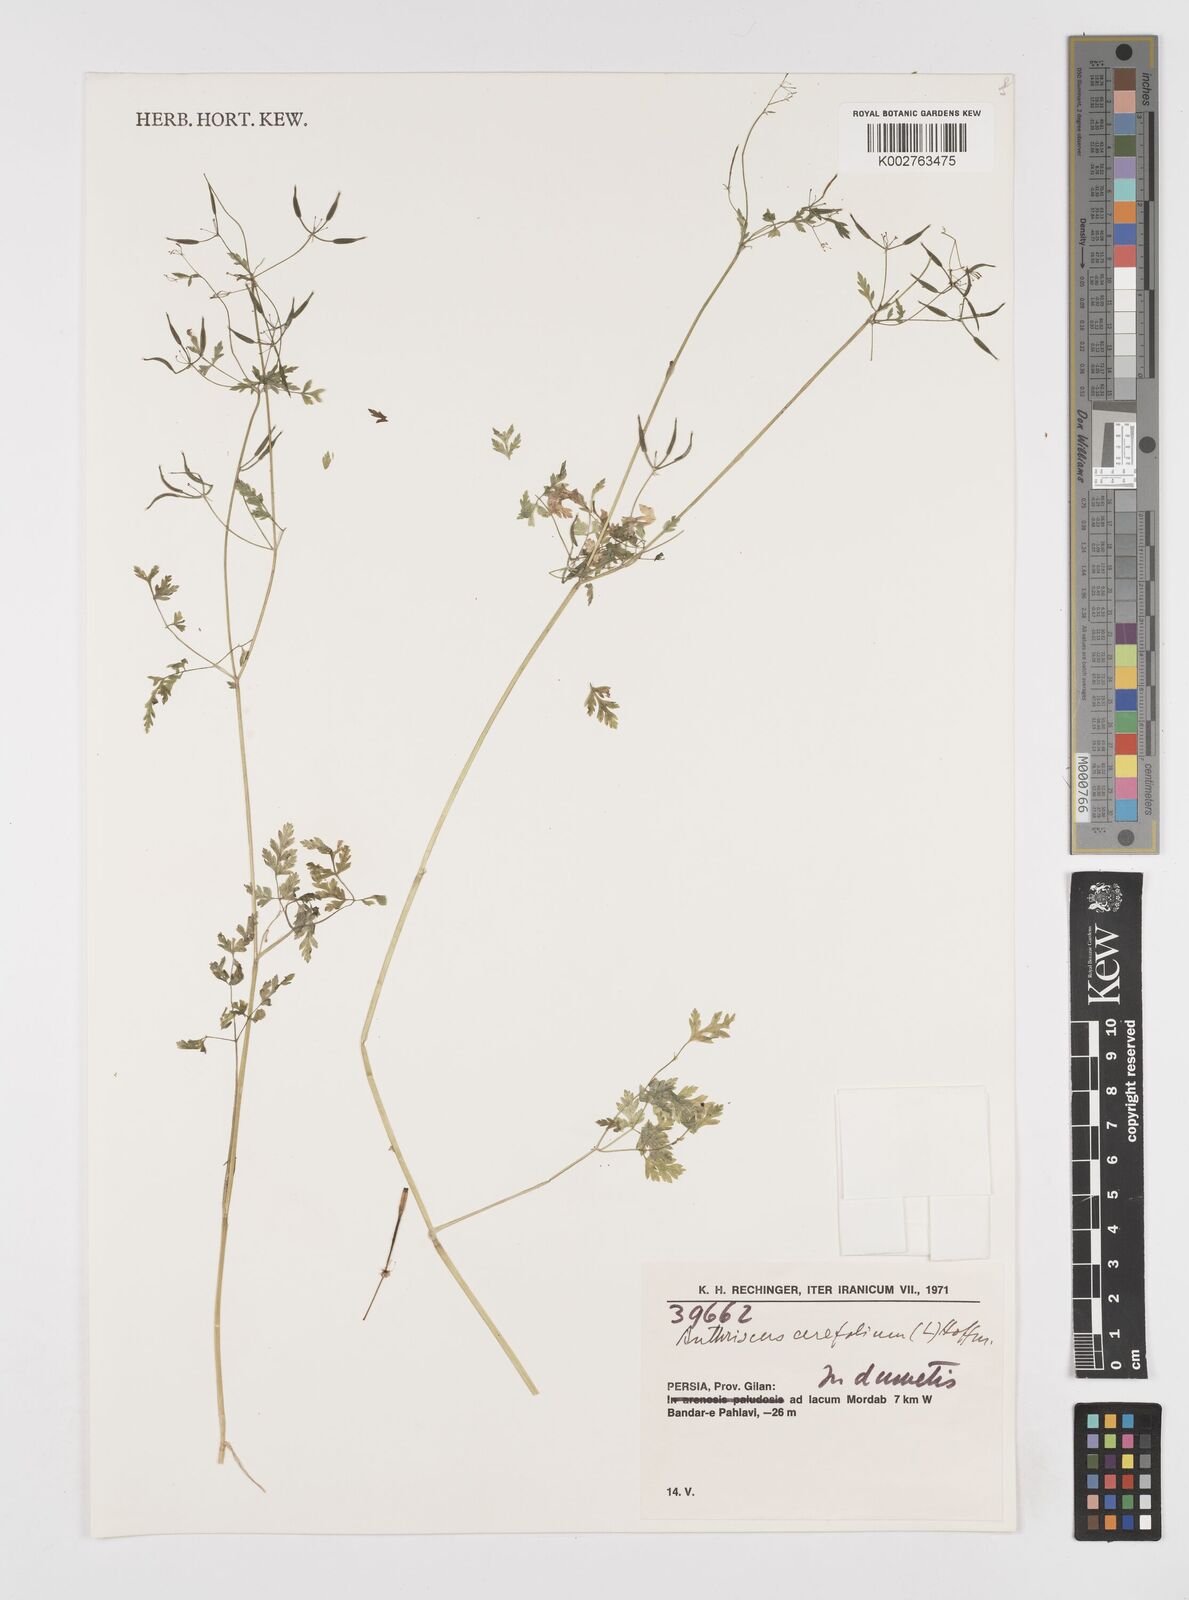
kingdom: Plantae
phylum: Tracheophyta
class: Magnoliopsida
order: Apiales
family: Apiaceae
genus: Anthriscus
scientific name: Anthriscus cerefolium
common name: Garden chervil
